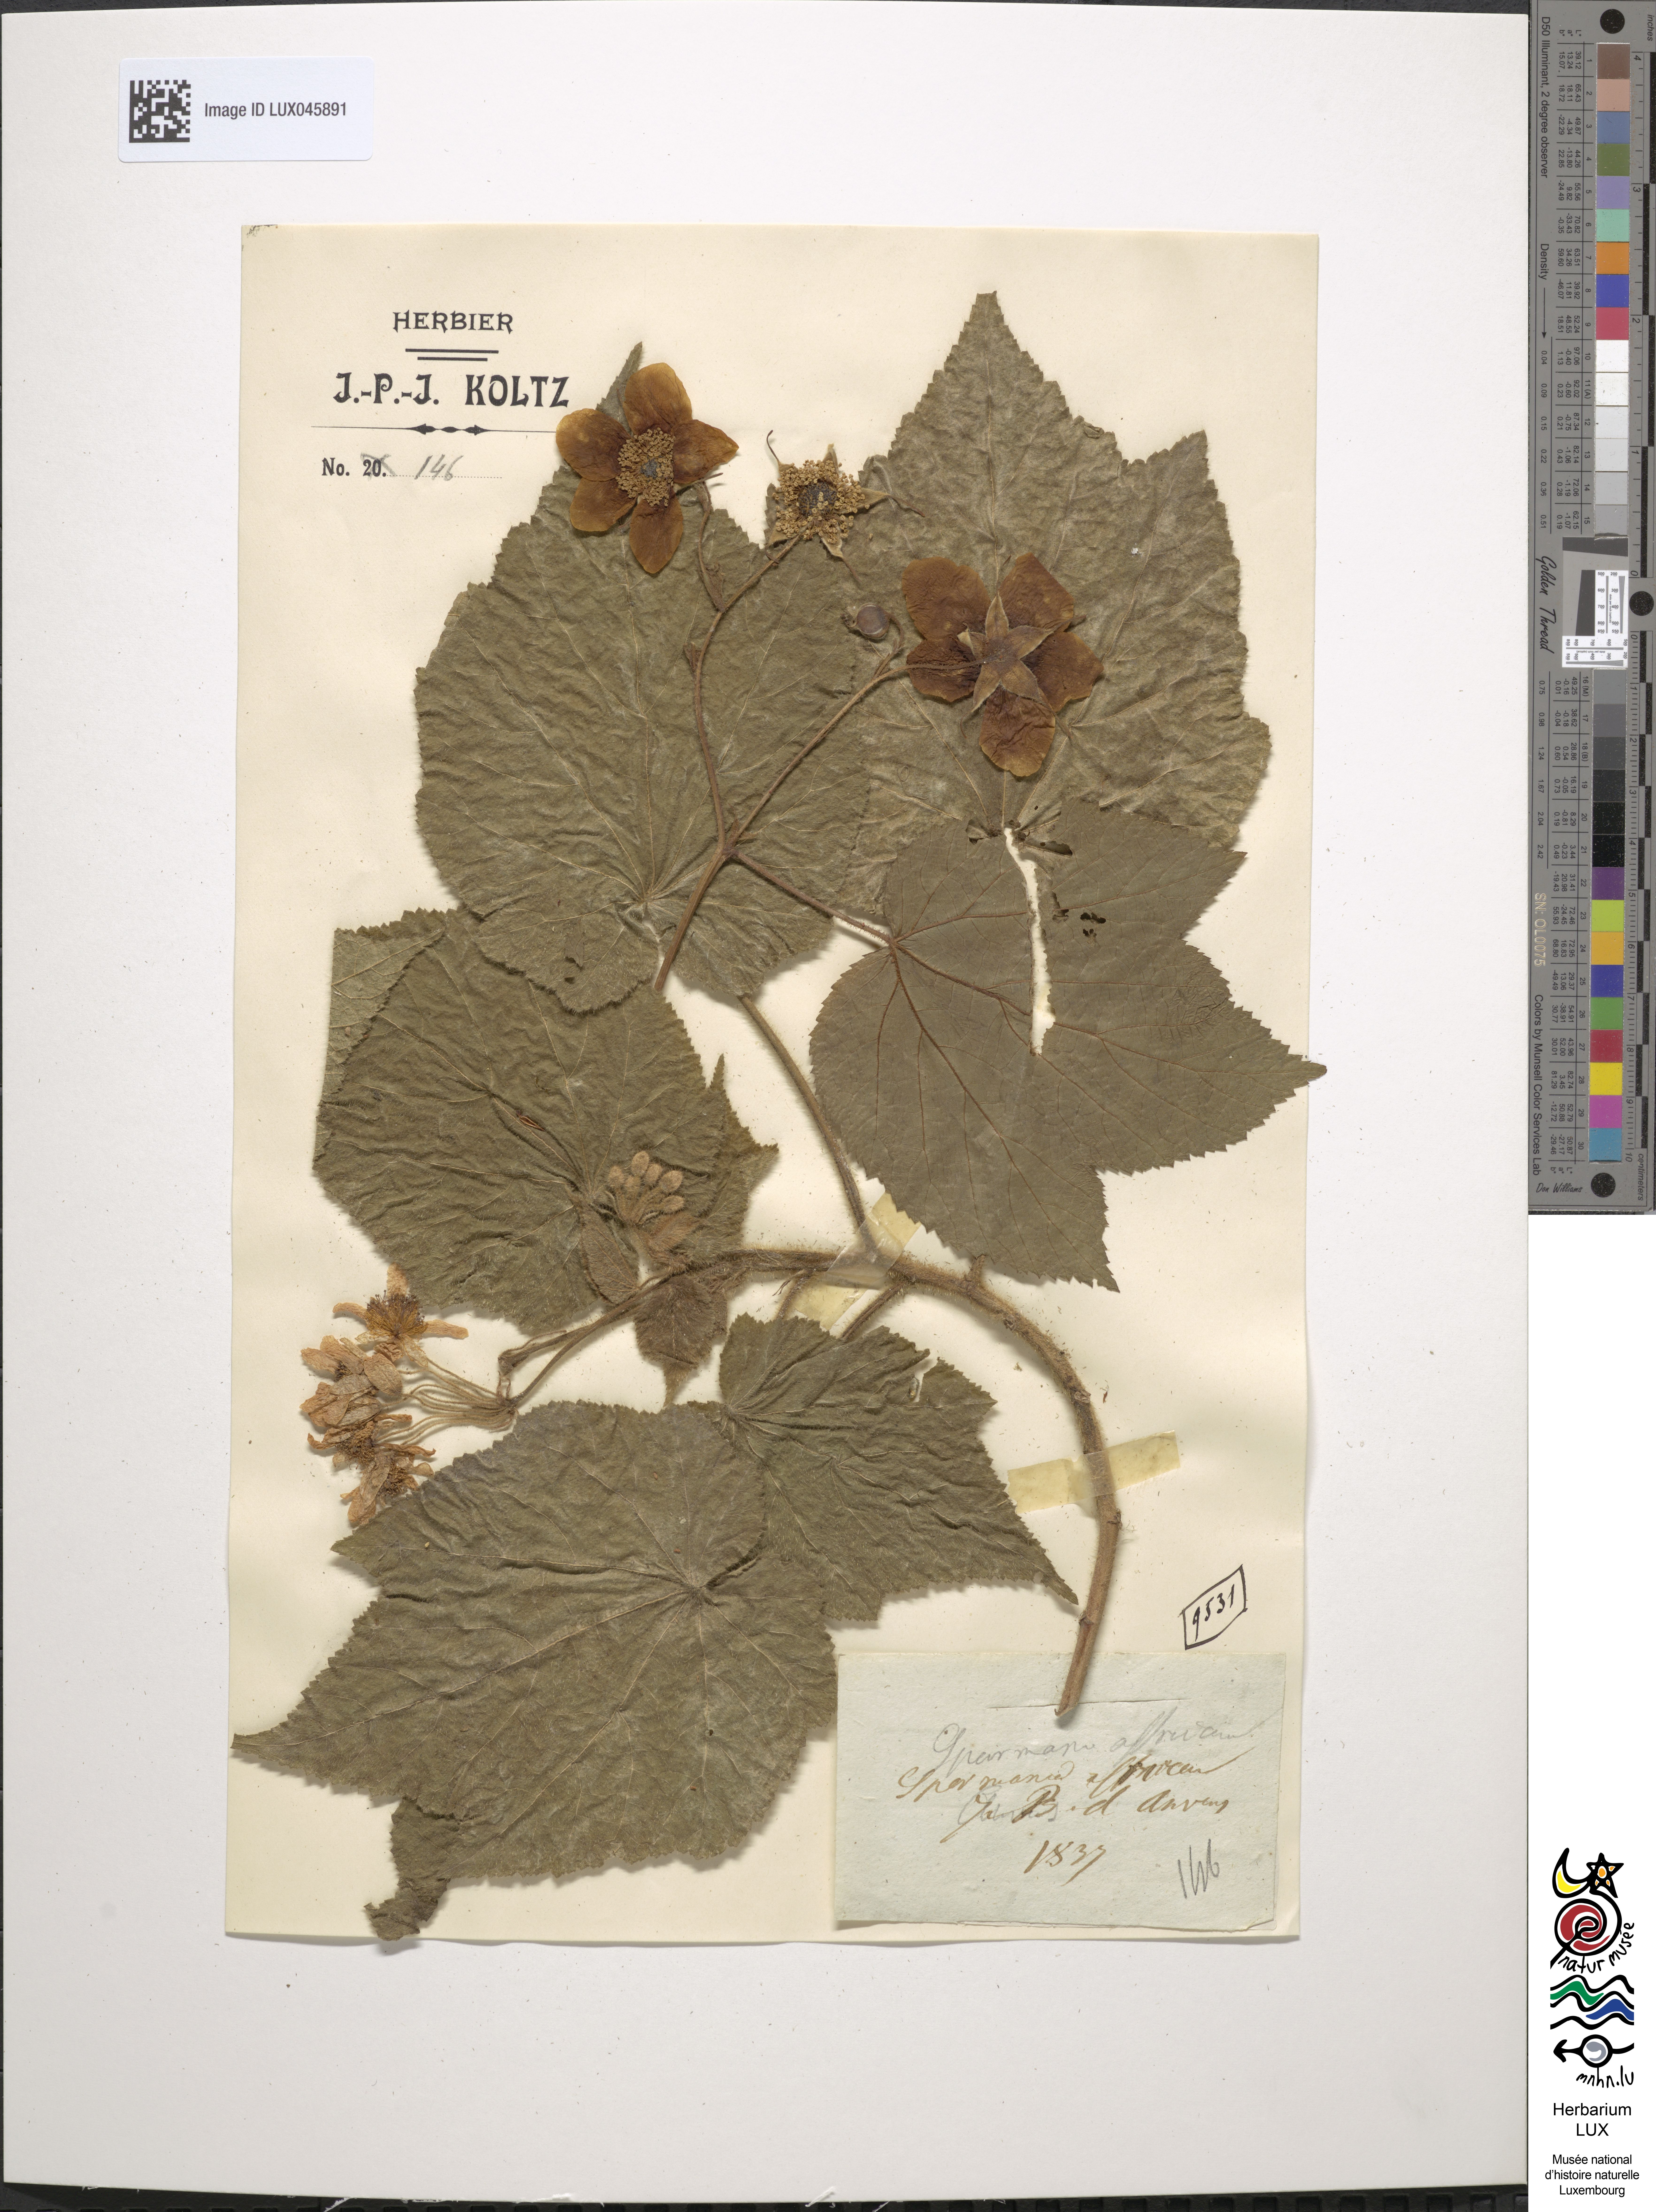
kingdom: Plantae
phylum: Tracheophyta
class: Magnoliopsida
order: Malvales
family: Malvaceae
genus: Sparmannia
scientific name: Sparmannia africana
